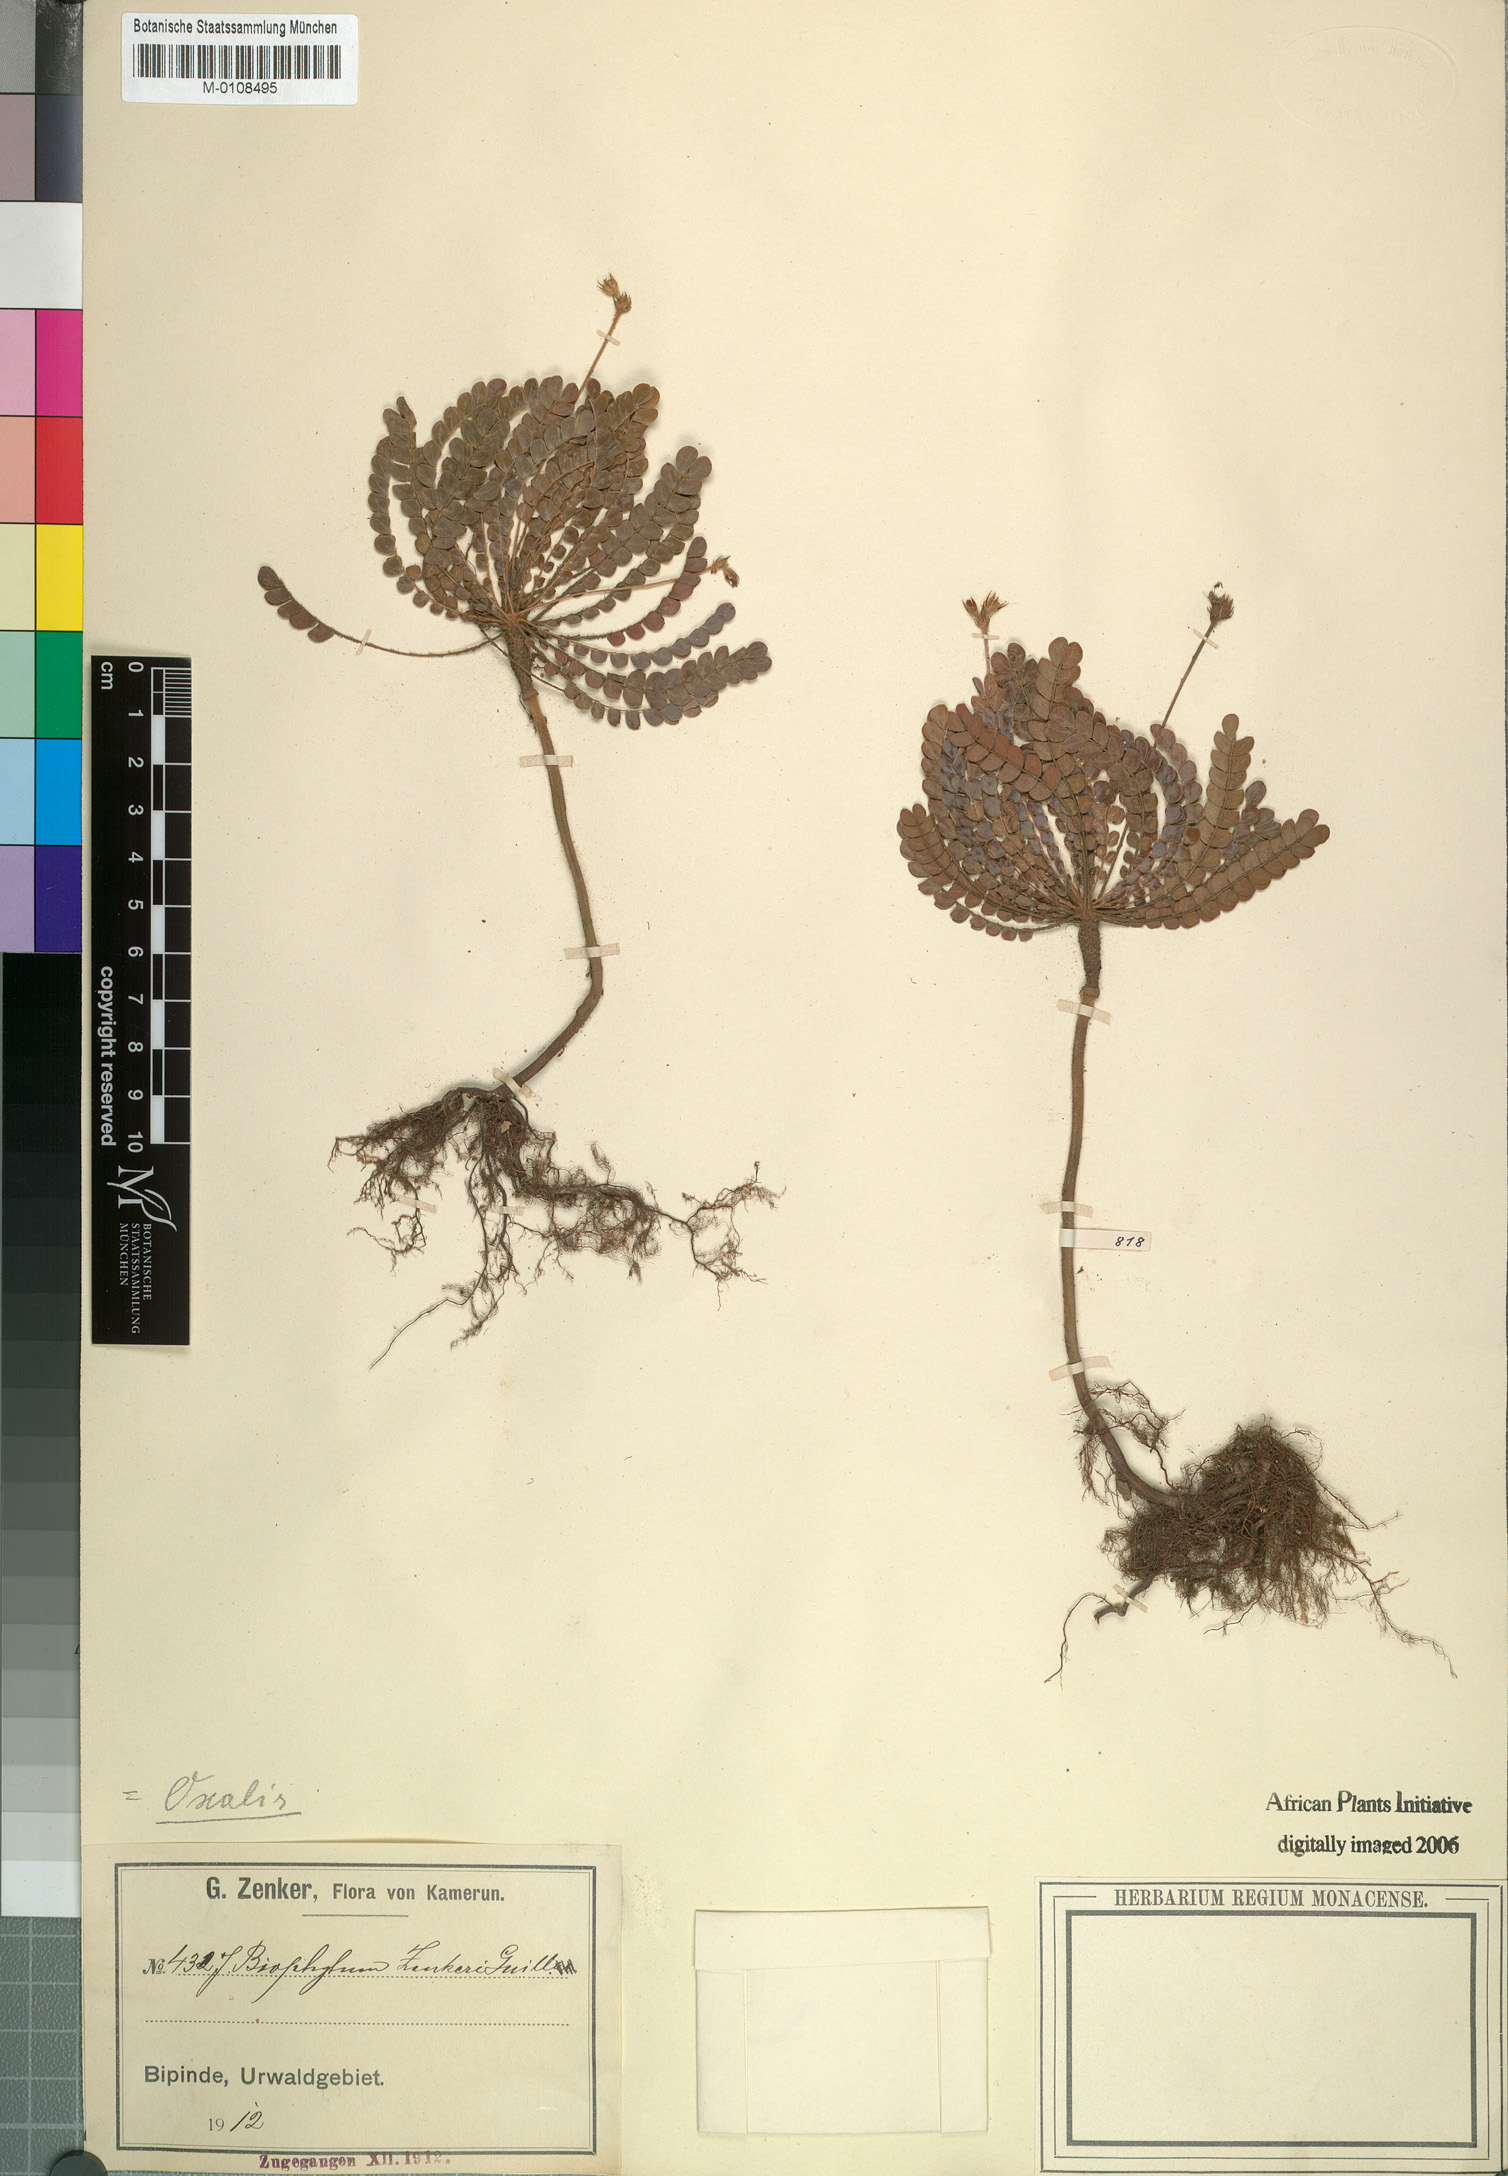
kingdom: Plantae
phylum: Tracheophyta
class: Magnoliopsida
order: Oxalidales
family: Oxalidaceae
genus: Biophytum
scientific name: Biophytum zenkeri
